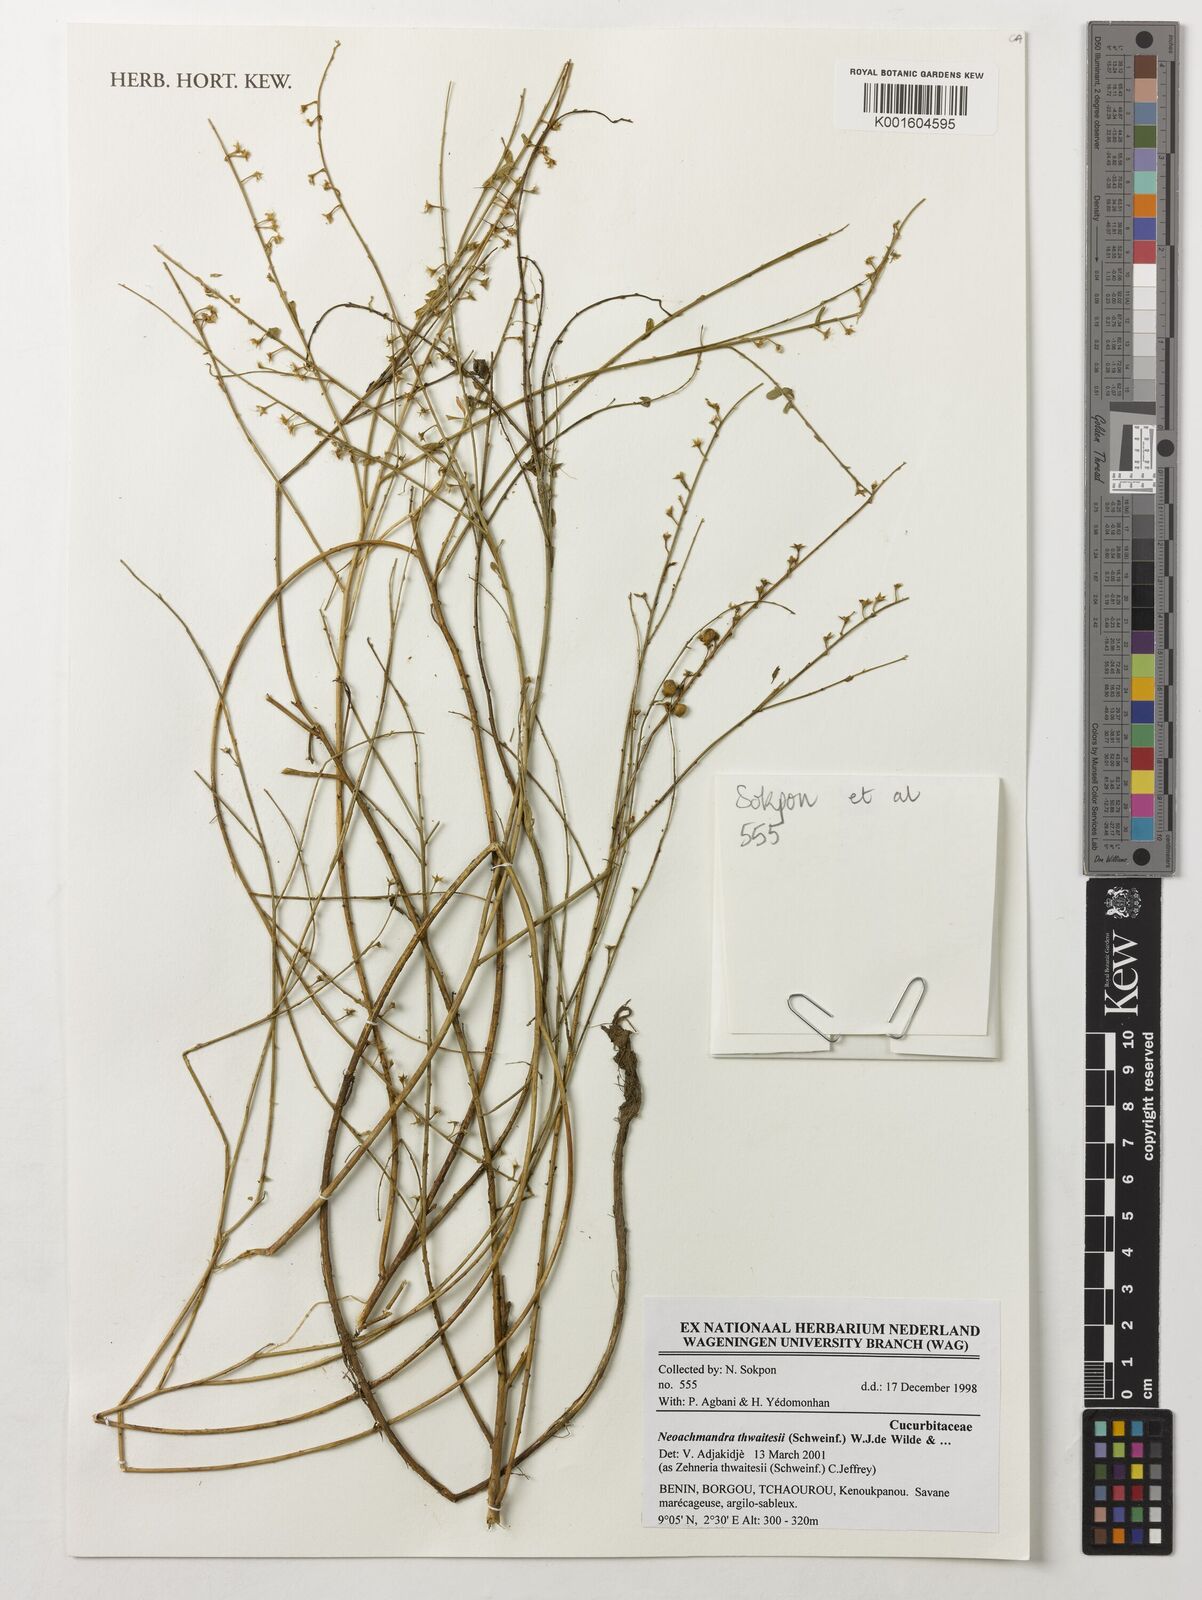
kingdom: Plantae
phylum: Tracheophyta
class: Magnoliopsida
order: Cucurbitales
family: Cucurbitaceae
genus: Zehneria
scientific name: Zehneria
